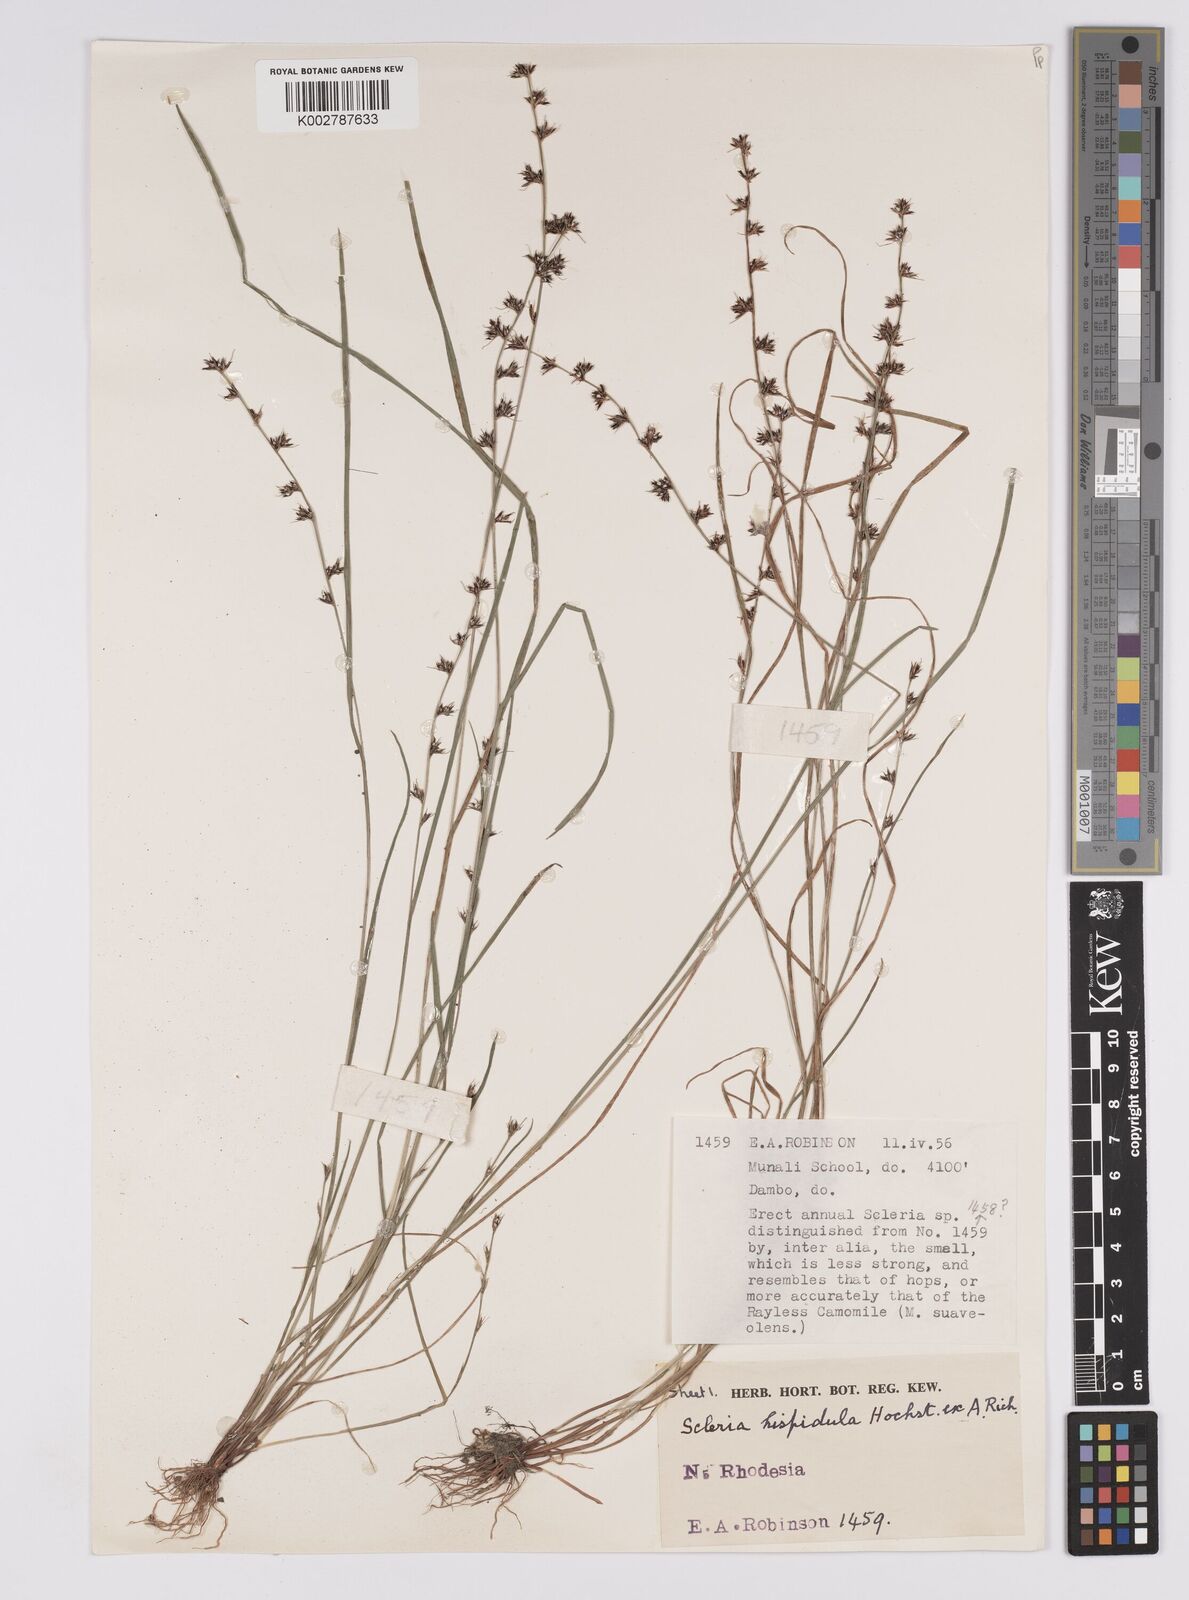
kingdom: Plantae
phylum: Tracheophyta
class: Liliopsida
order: Poales
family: Cyperaceae
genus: Scleria
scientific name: Scleria hispidula
